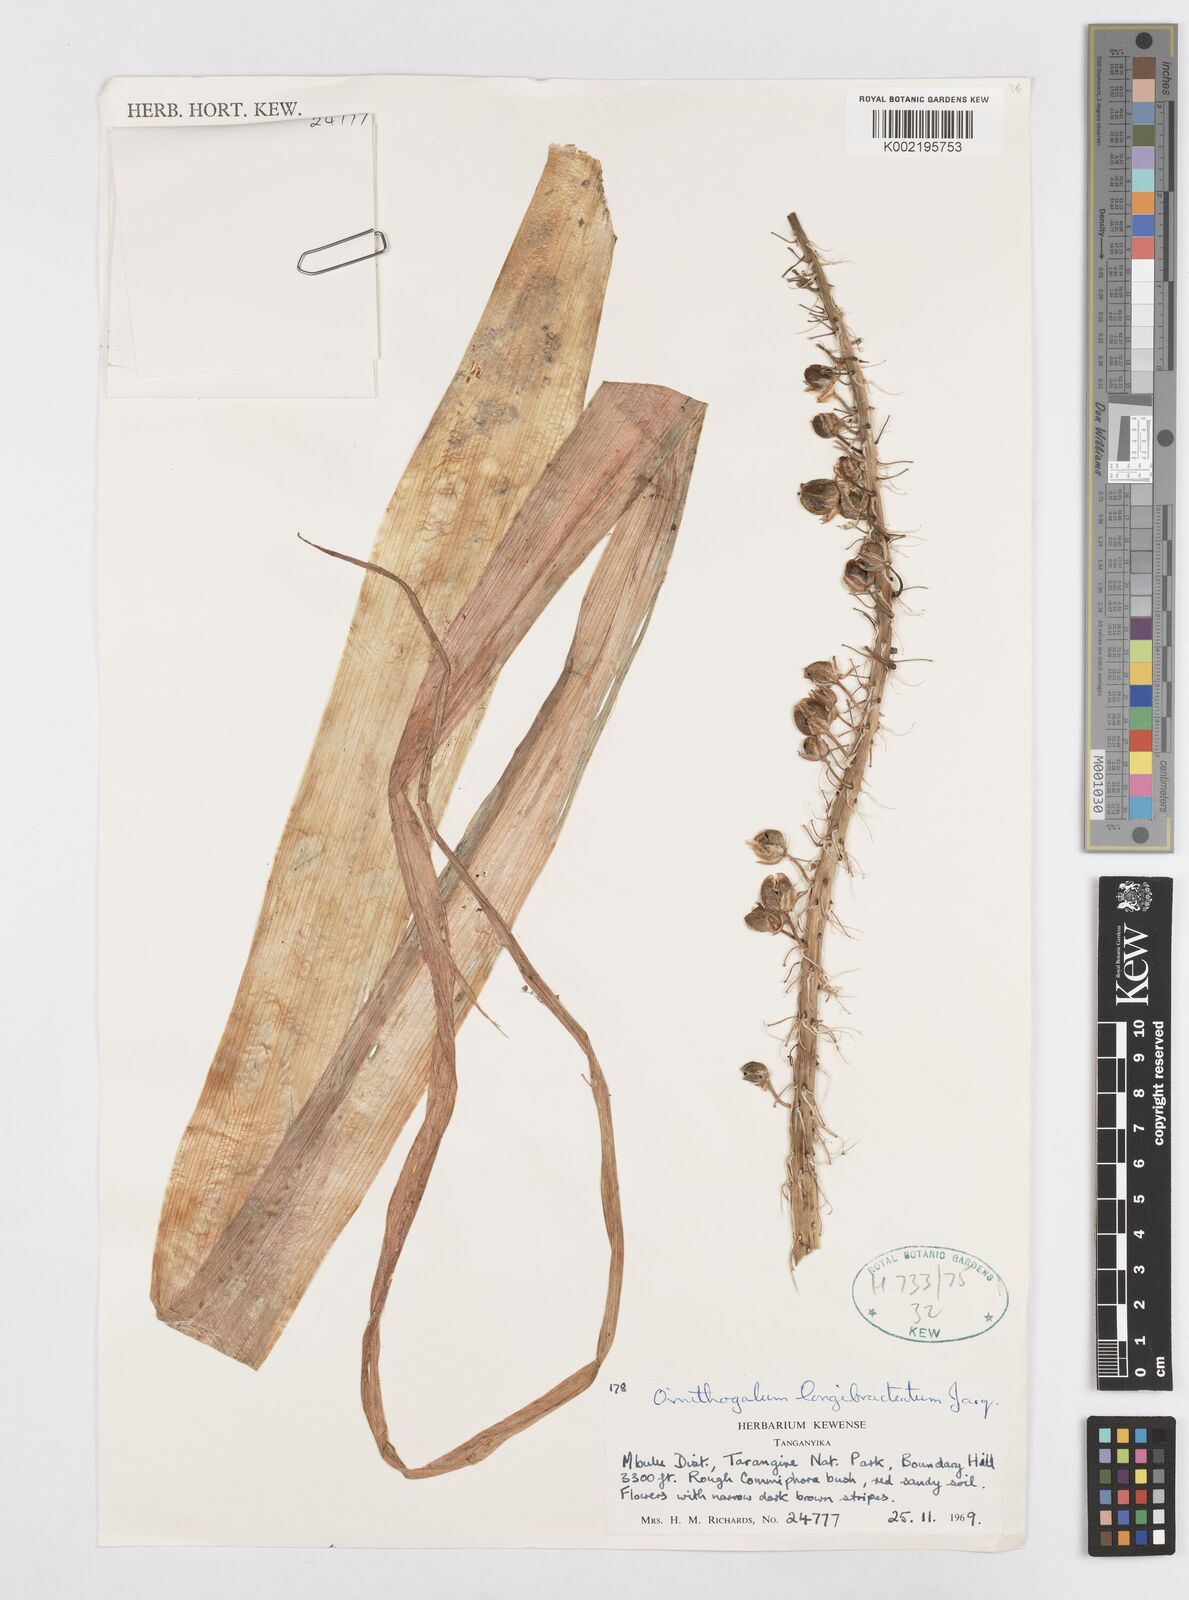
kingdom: Plantae
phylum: Tracheophyta
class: Liliopsida
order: Asparagales
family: Asparagaceae
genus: Ornithogalum
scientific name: Ornithogalum
